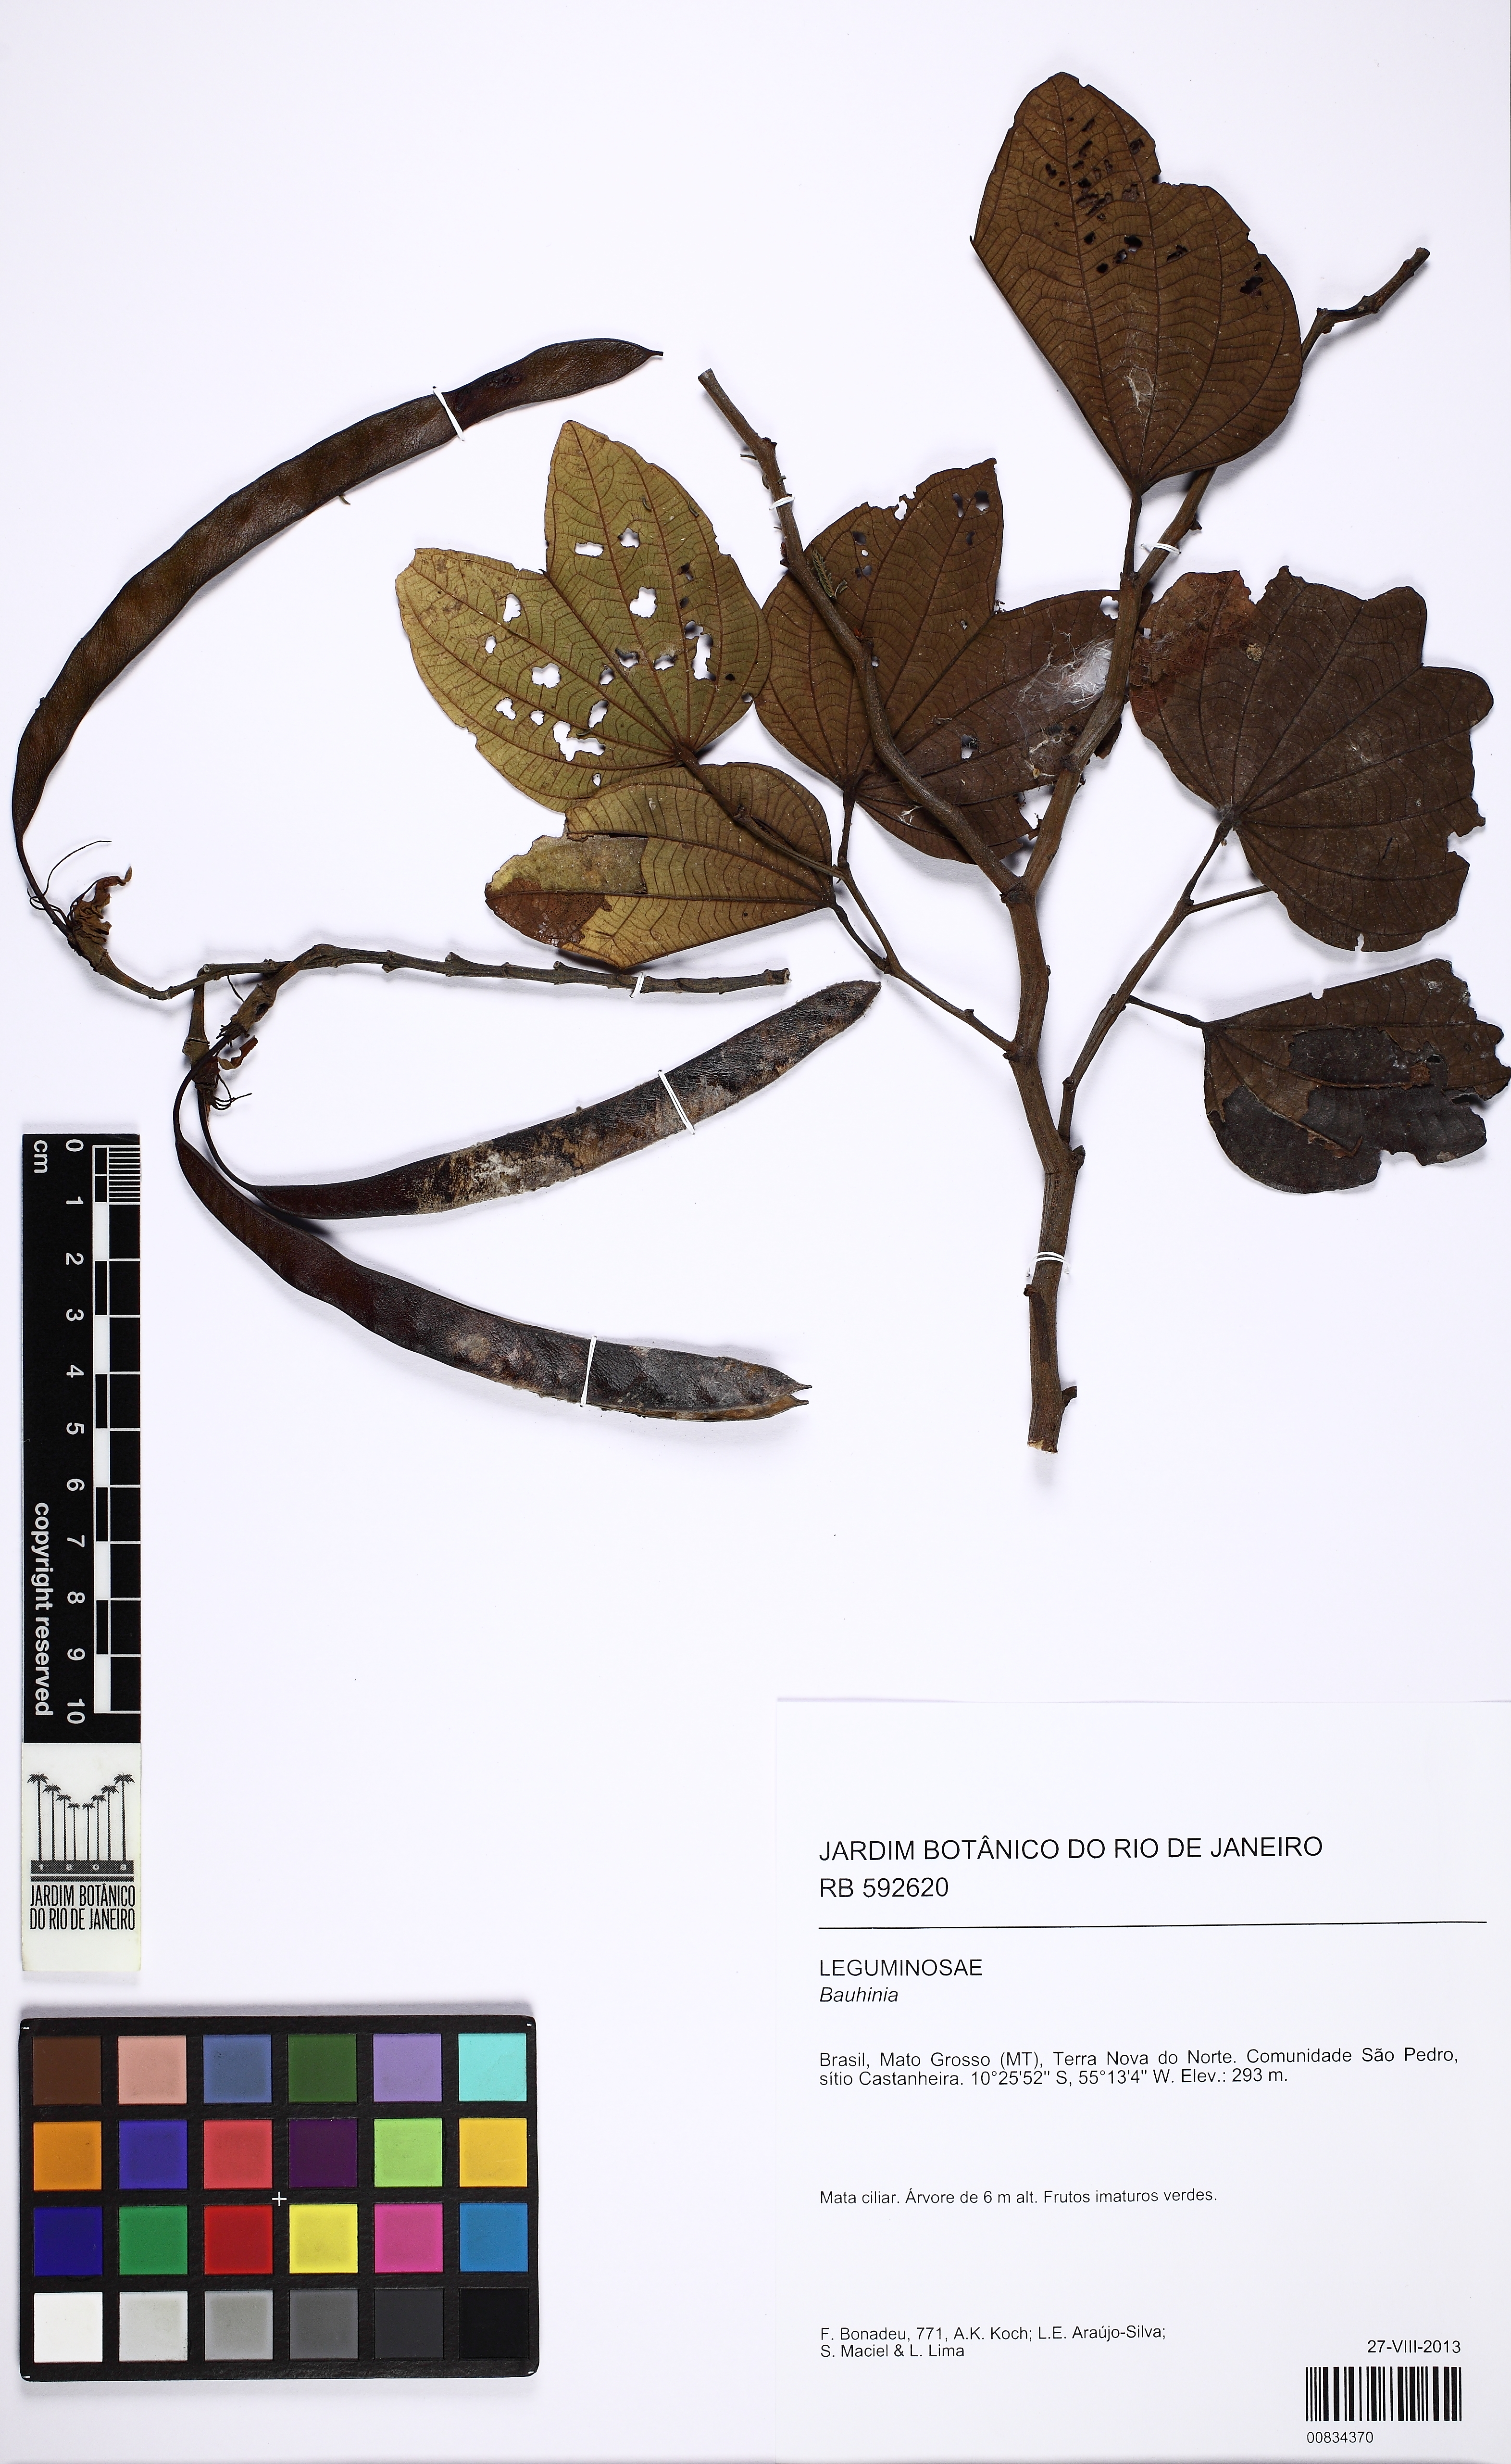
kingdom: Plantae
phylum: Tracheophyta
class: Magnoliopsida
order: Fabales
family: Fabaceae
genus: Bauhinia
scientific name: Bauhinia
